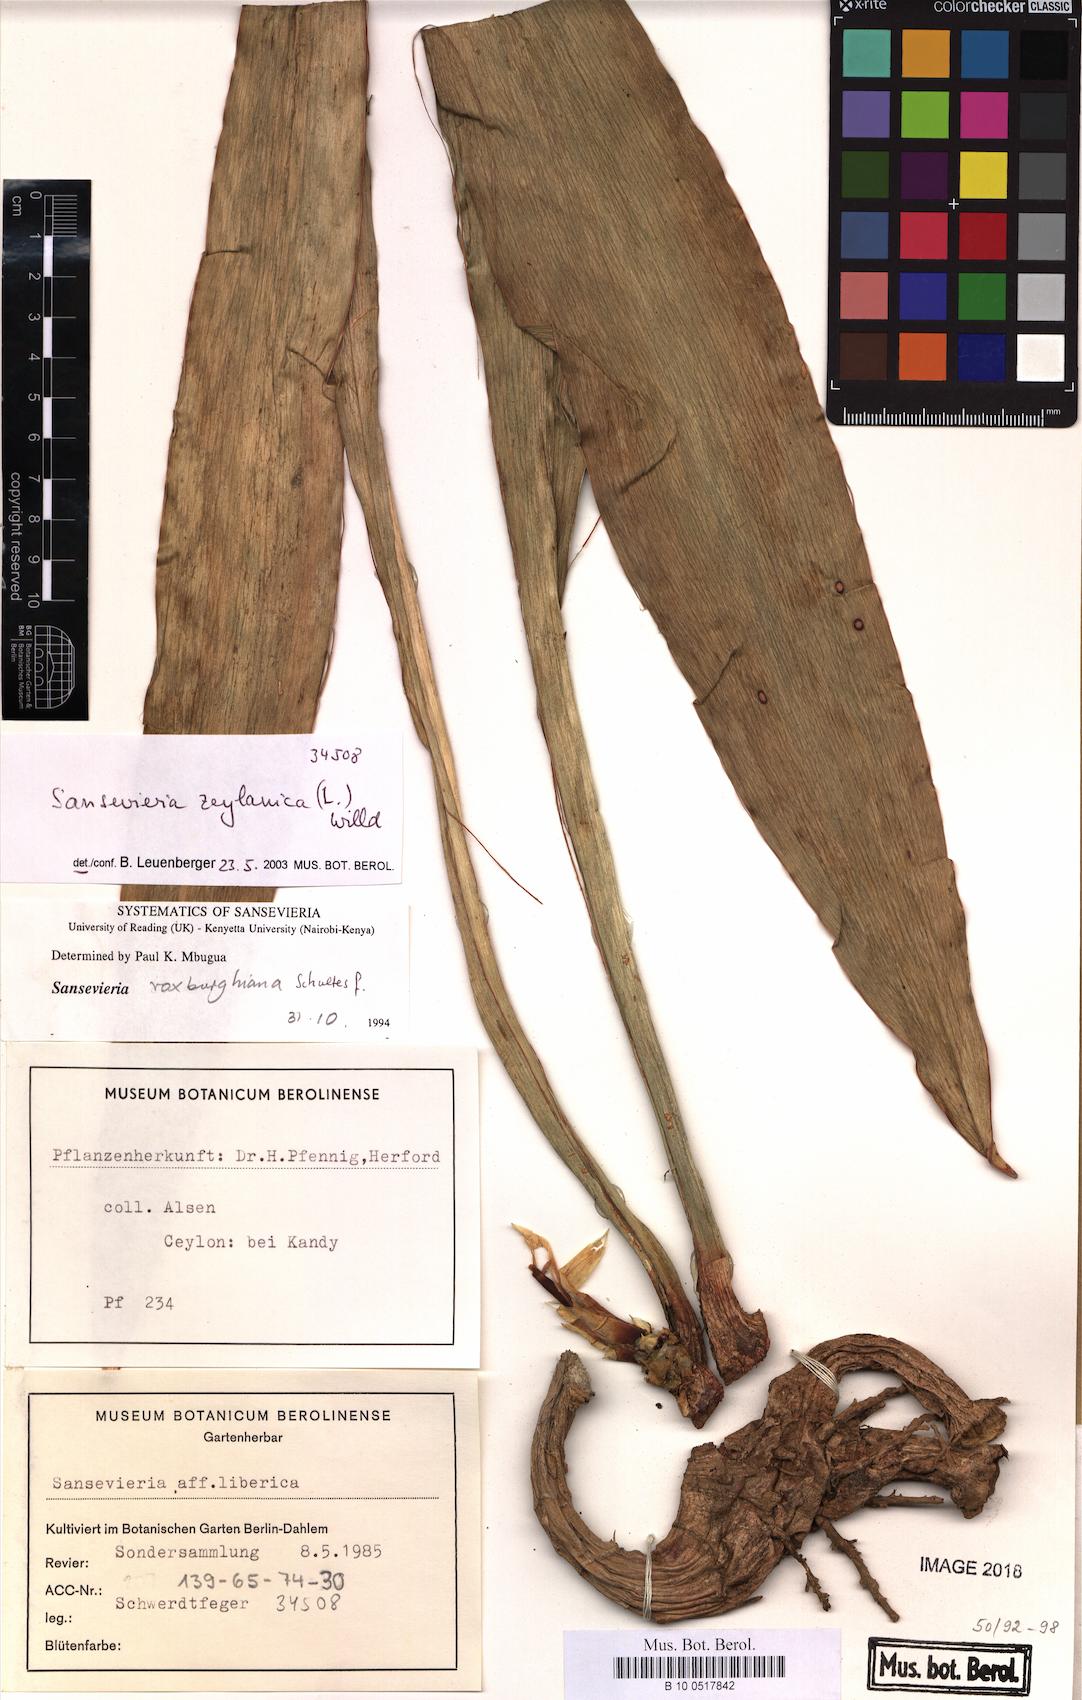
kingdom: Plantae
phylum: Tracheophyta
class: Liliopsida
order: Asparagales
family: Asparagaceae
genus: Dracaena
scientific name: Dracaena zeylanica
